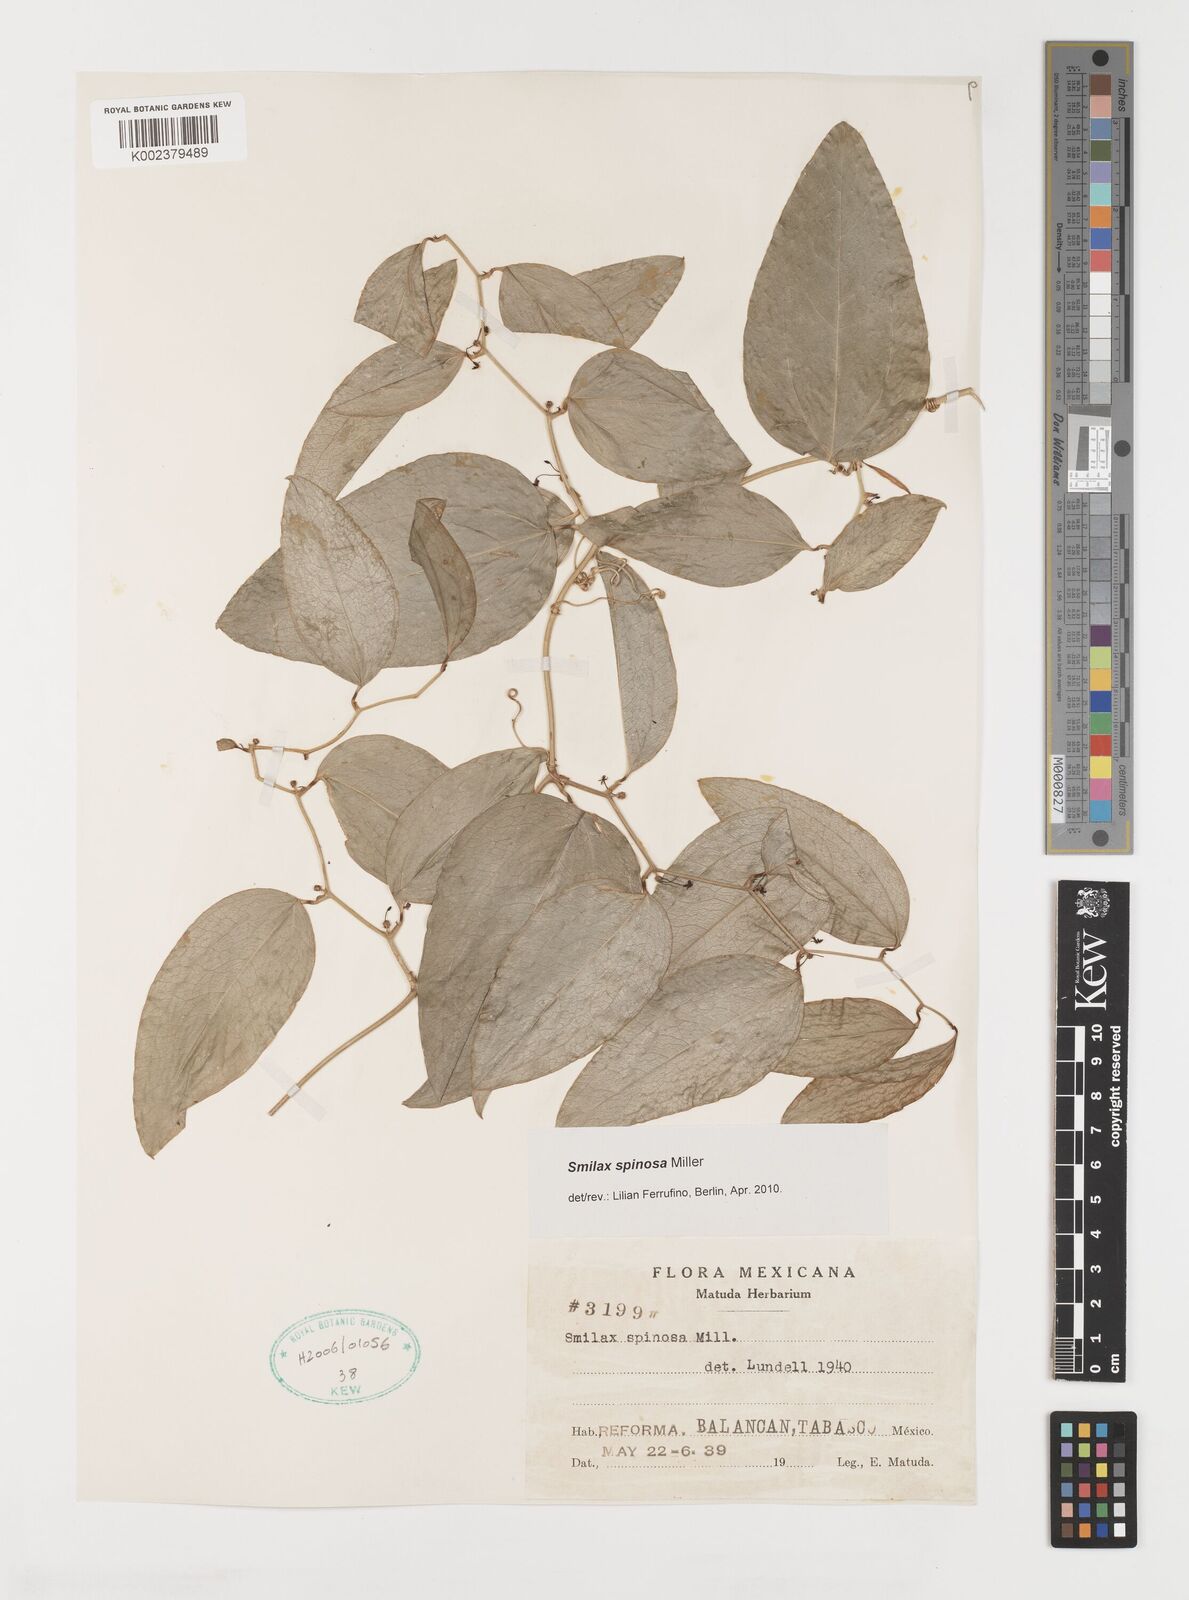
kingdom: Plantae
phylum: Tracheophyta
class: Liliopsida
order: Liliales
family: Smilacaceae
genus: Smilax
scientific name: Smilax spinosa
